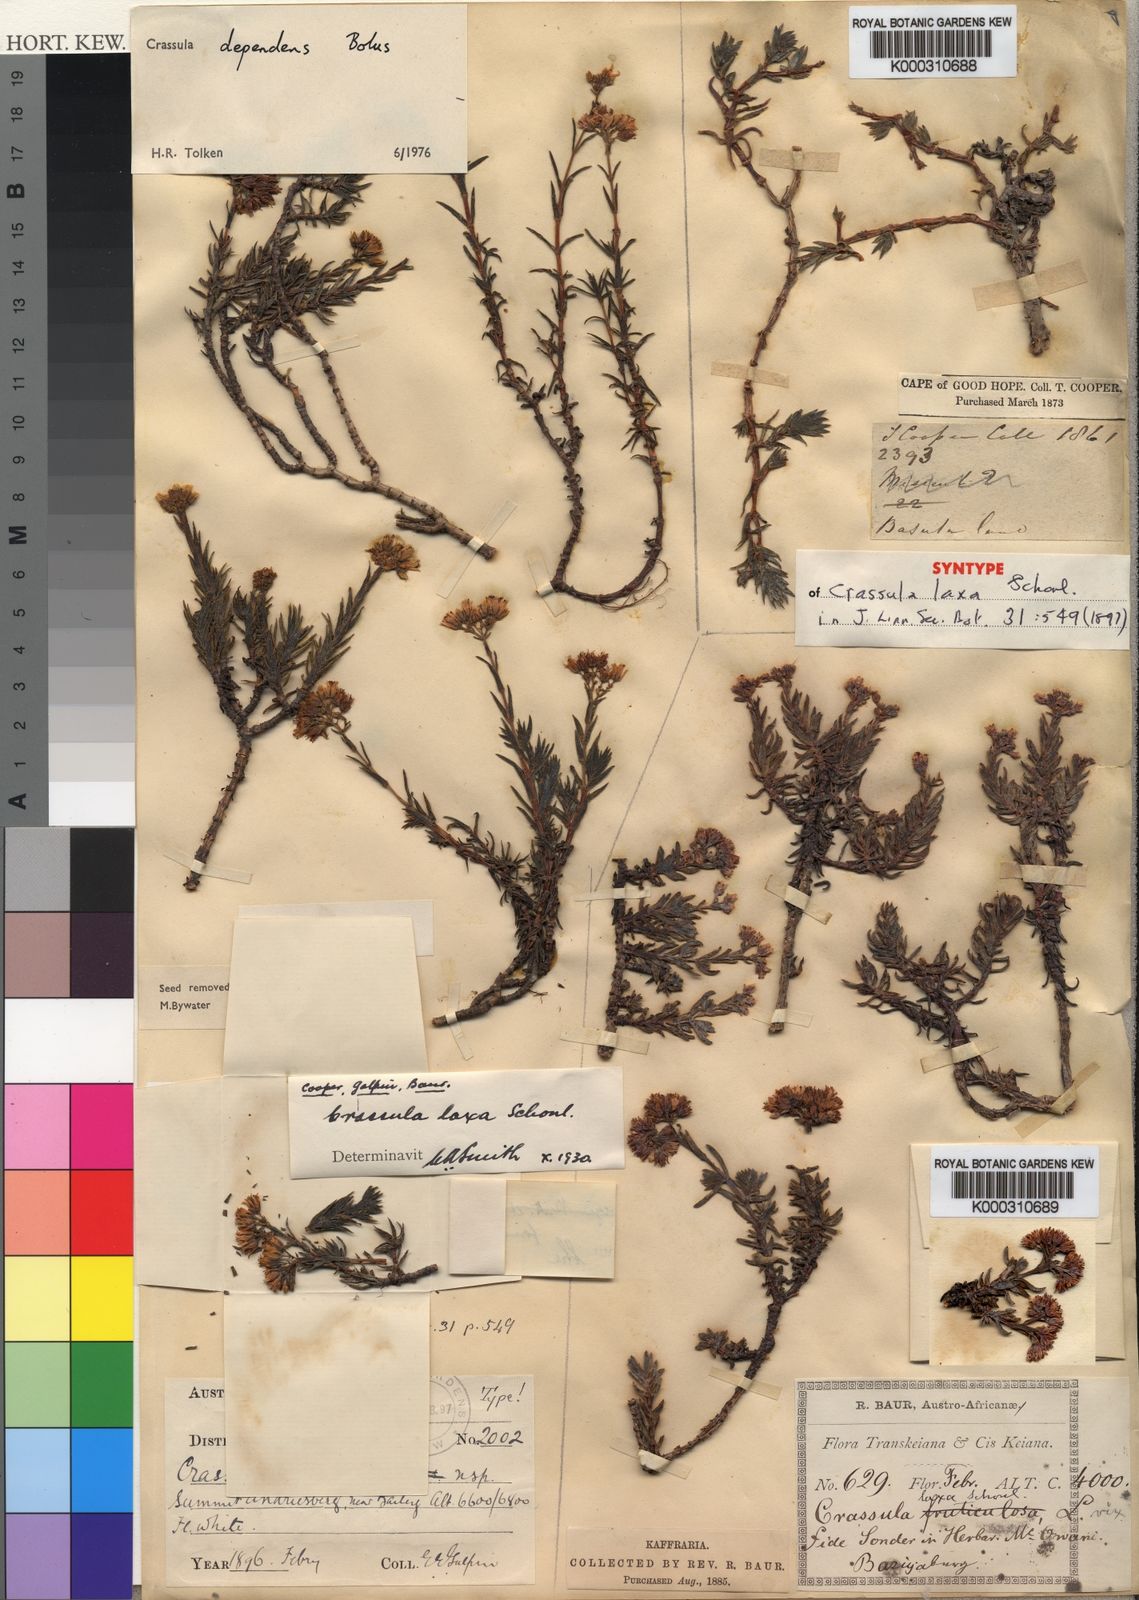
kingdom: Plantae
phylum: Tracheophyta
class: Magnoliopsida
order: Saxifragales
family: Crassulaceae
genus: Crassula
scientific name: Crassula dependens
